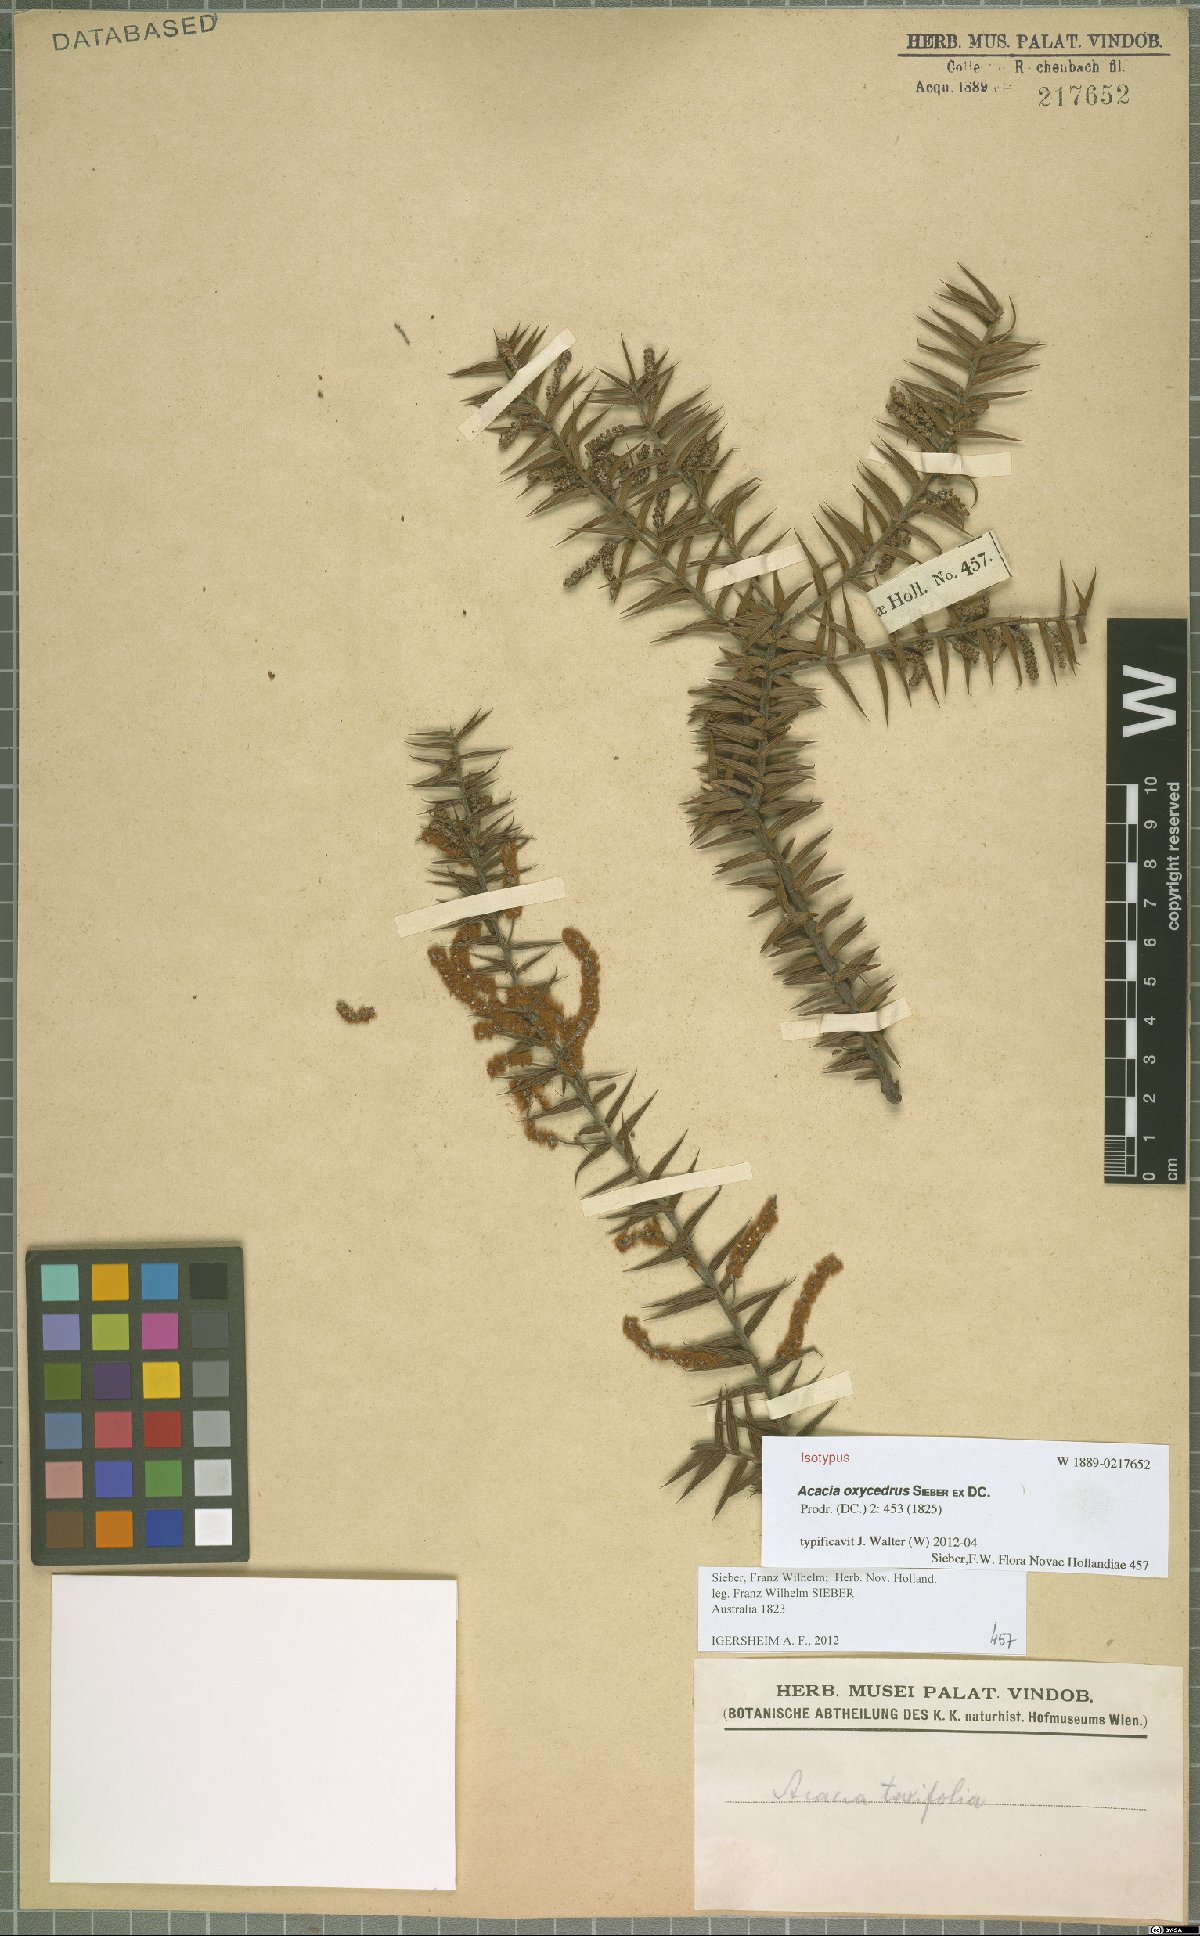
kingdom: Plantae
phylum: Tracheophyta
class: Magnoliopsida
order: Fabales
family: Fabaceae
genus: Acacia
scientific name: Acacia oxycedrus
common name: Spike wattle
